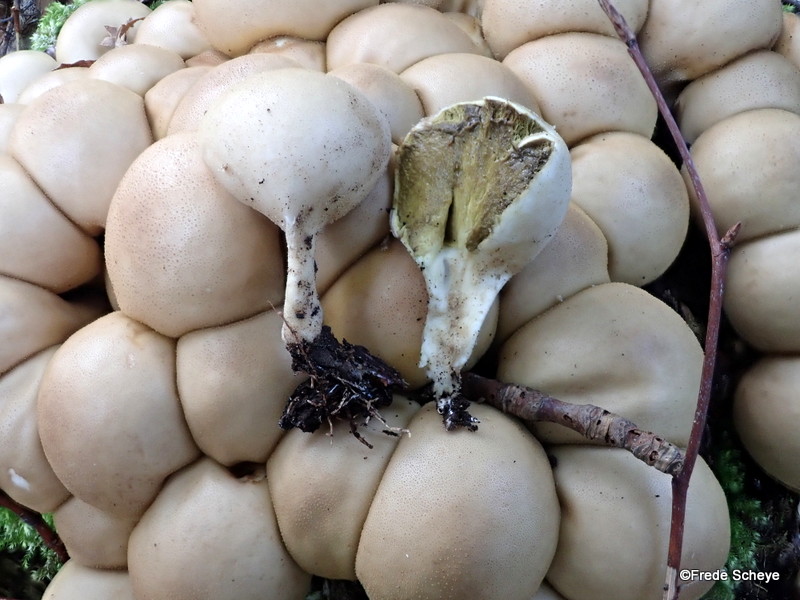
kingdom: Fungi
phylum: Basidiomycota
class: Agaricomycetes
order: Agaricales
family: Lycoperdaceae
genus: Apioperdon
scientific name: Apioperdon pyriforme
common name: pære-støvbold
